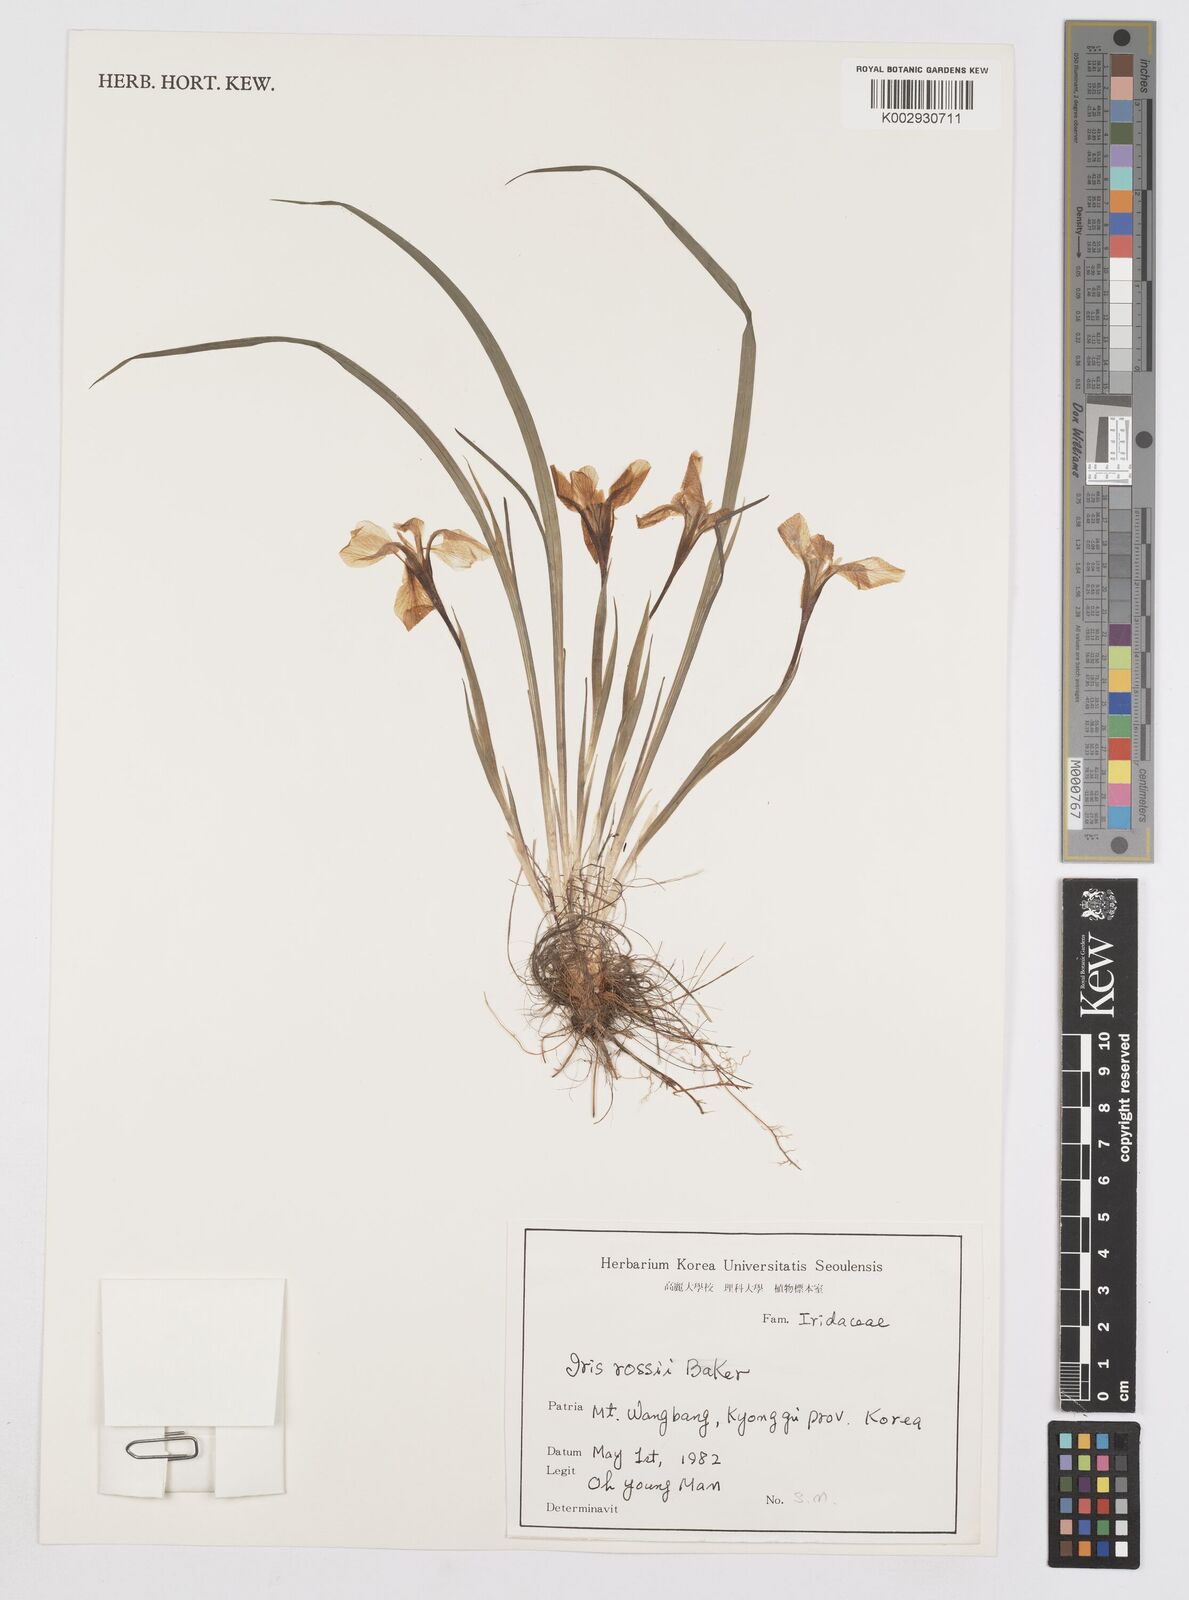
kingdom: Plantae
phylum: Tracheophyta
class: Liliopsida
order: Asparagales
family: Iridaceae
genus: Iris
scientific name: Iris rossii
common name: Long-tail iris
